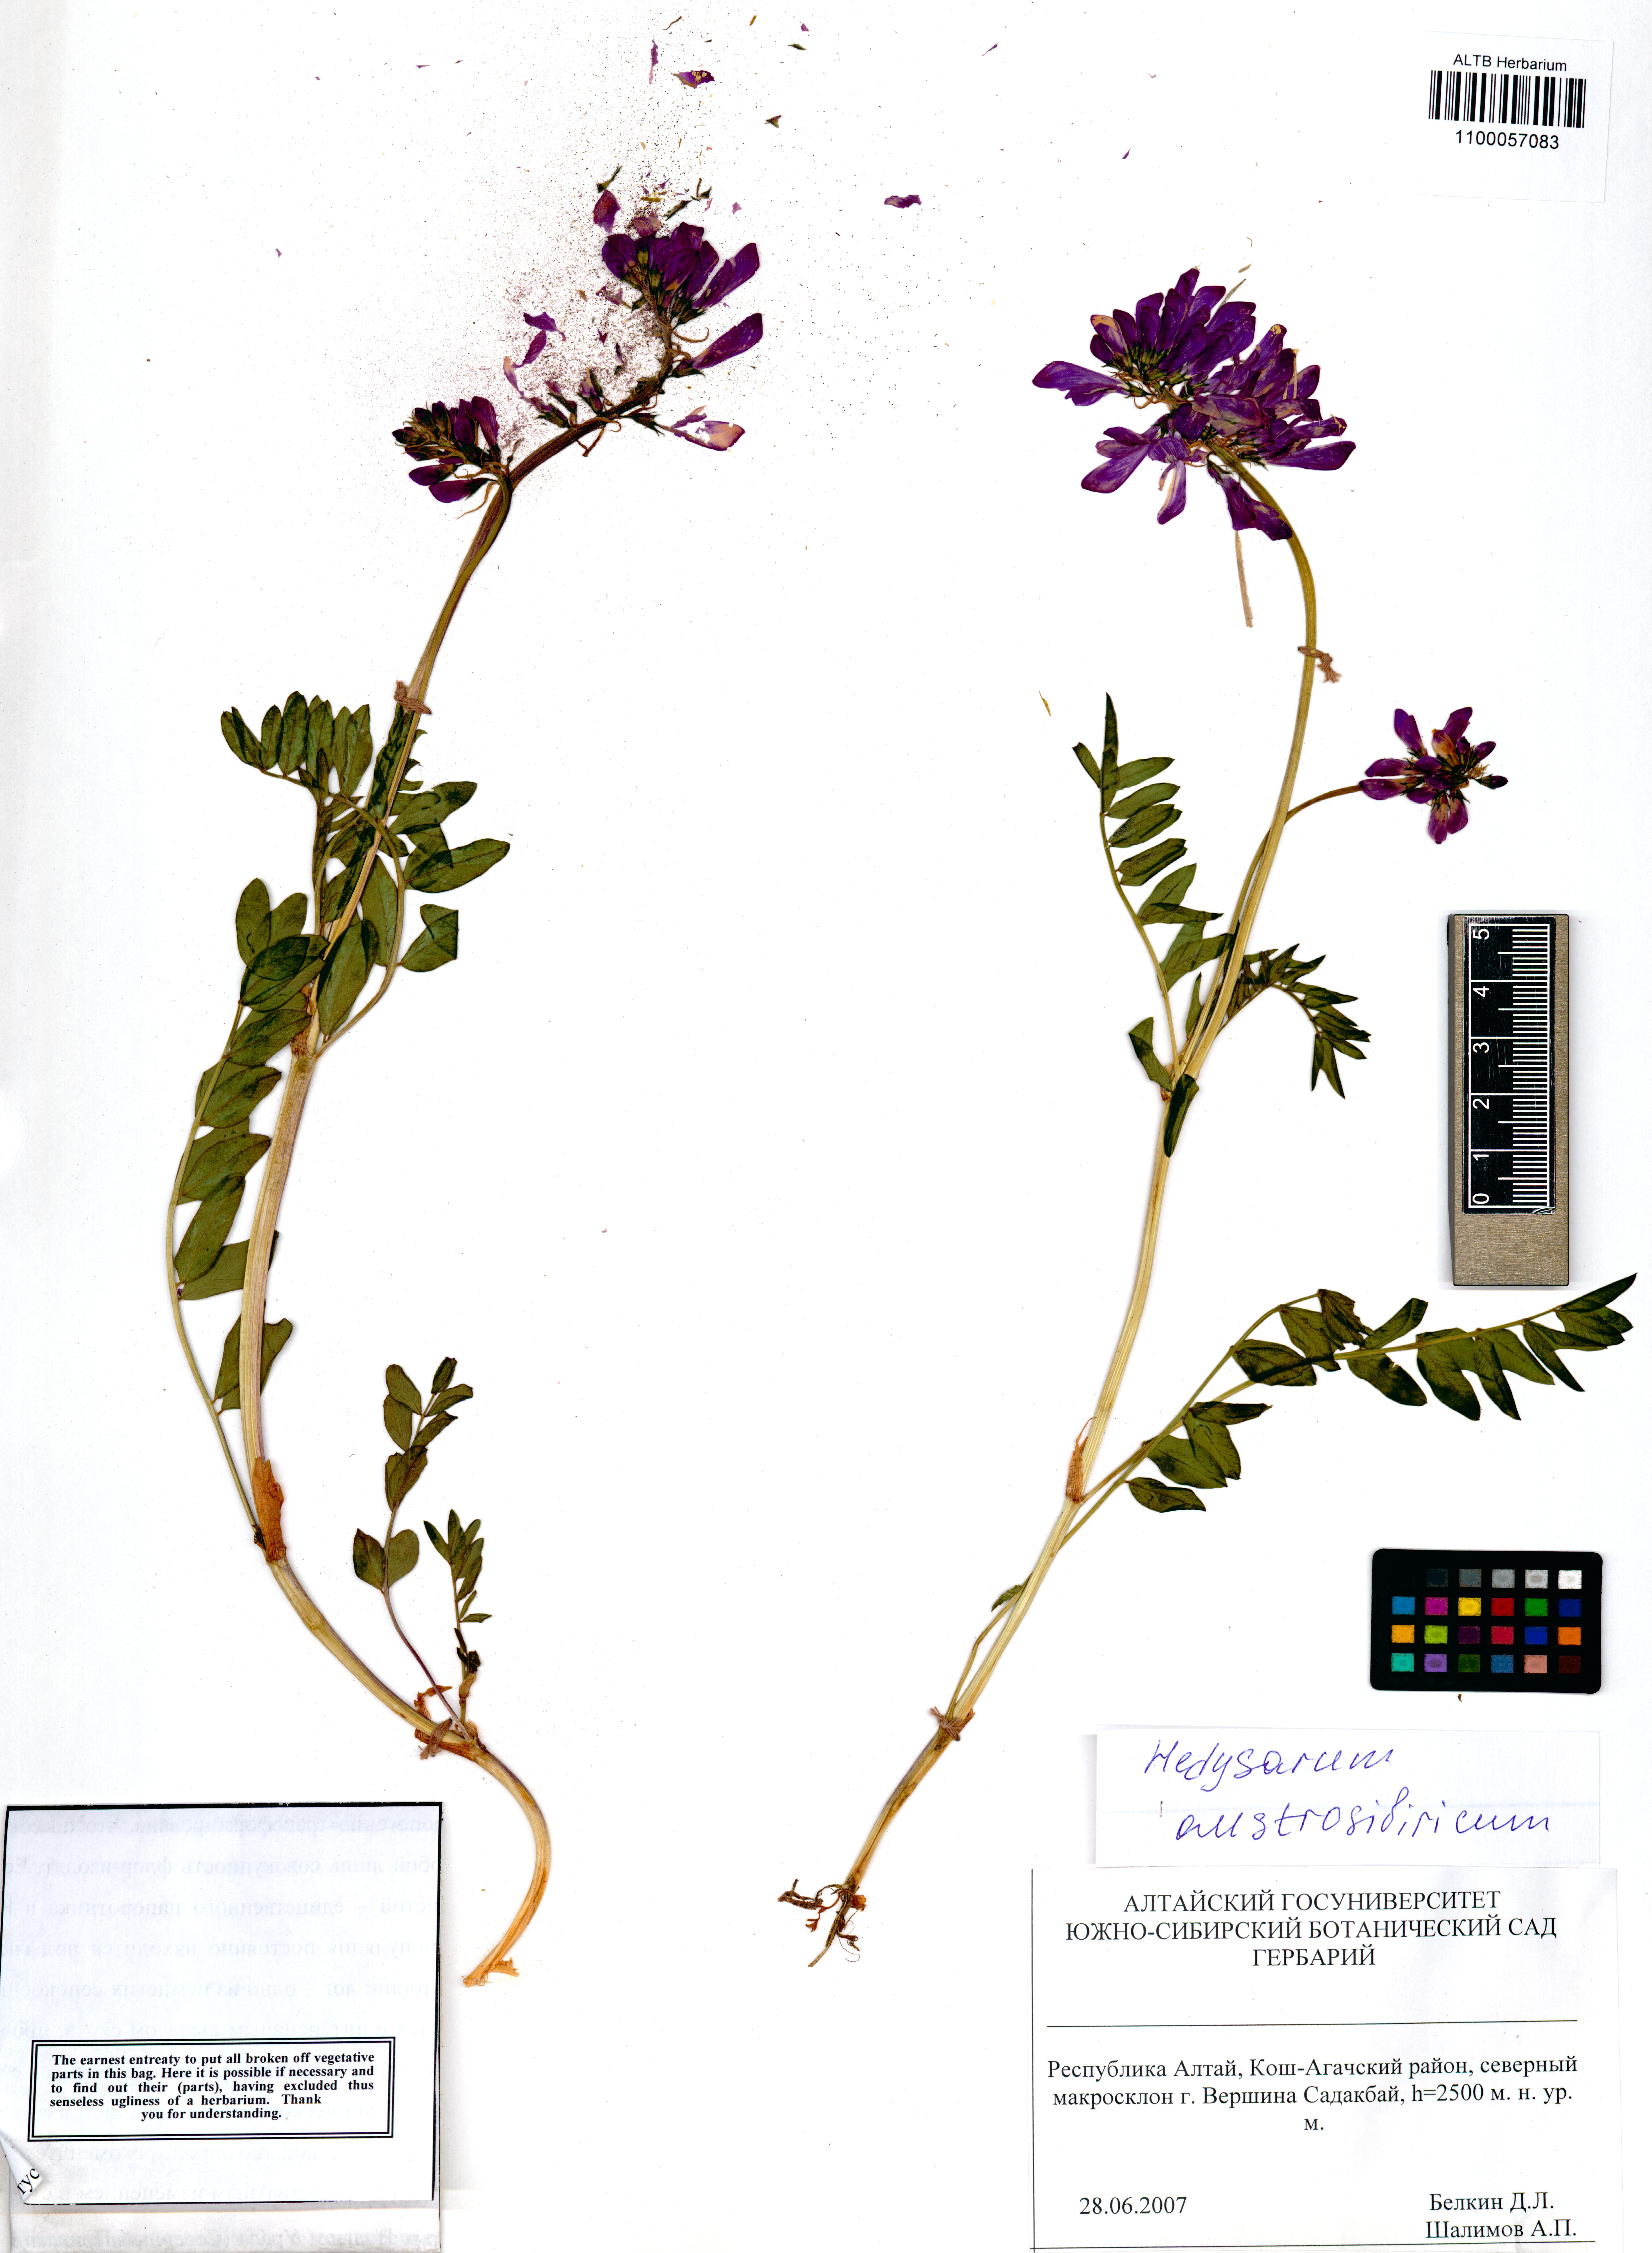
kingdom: Plantae
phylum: Tracheophyta
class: Magnoliopsida
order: Fabales
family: Fabaceae
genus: Hedysarum
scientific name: Hedysarum neglectum
